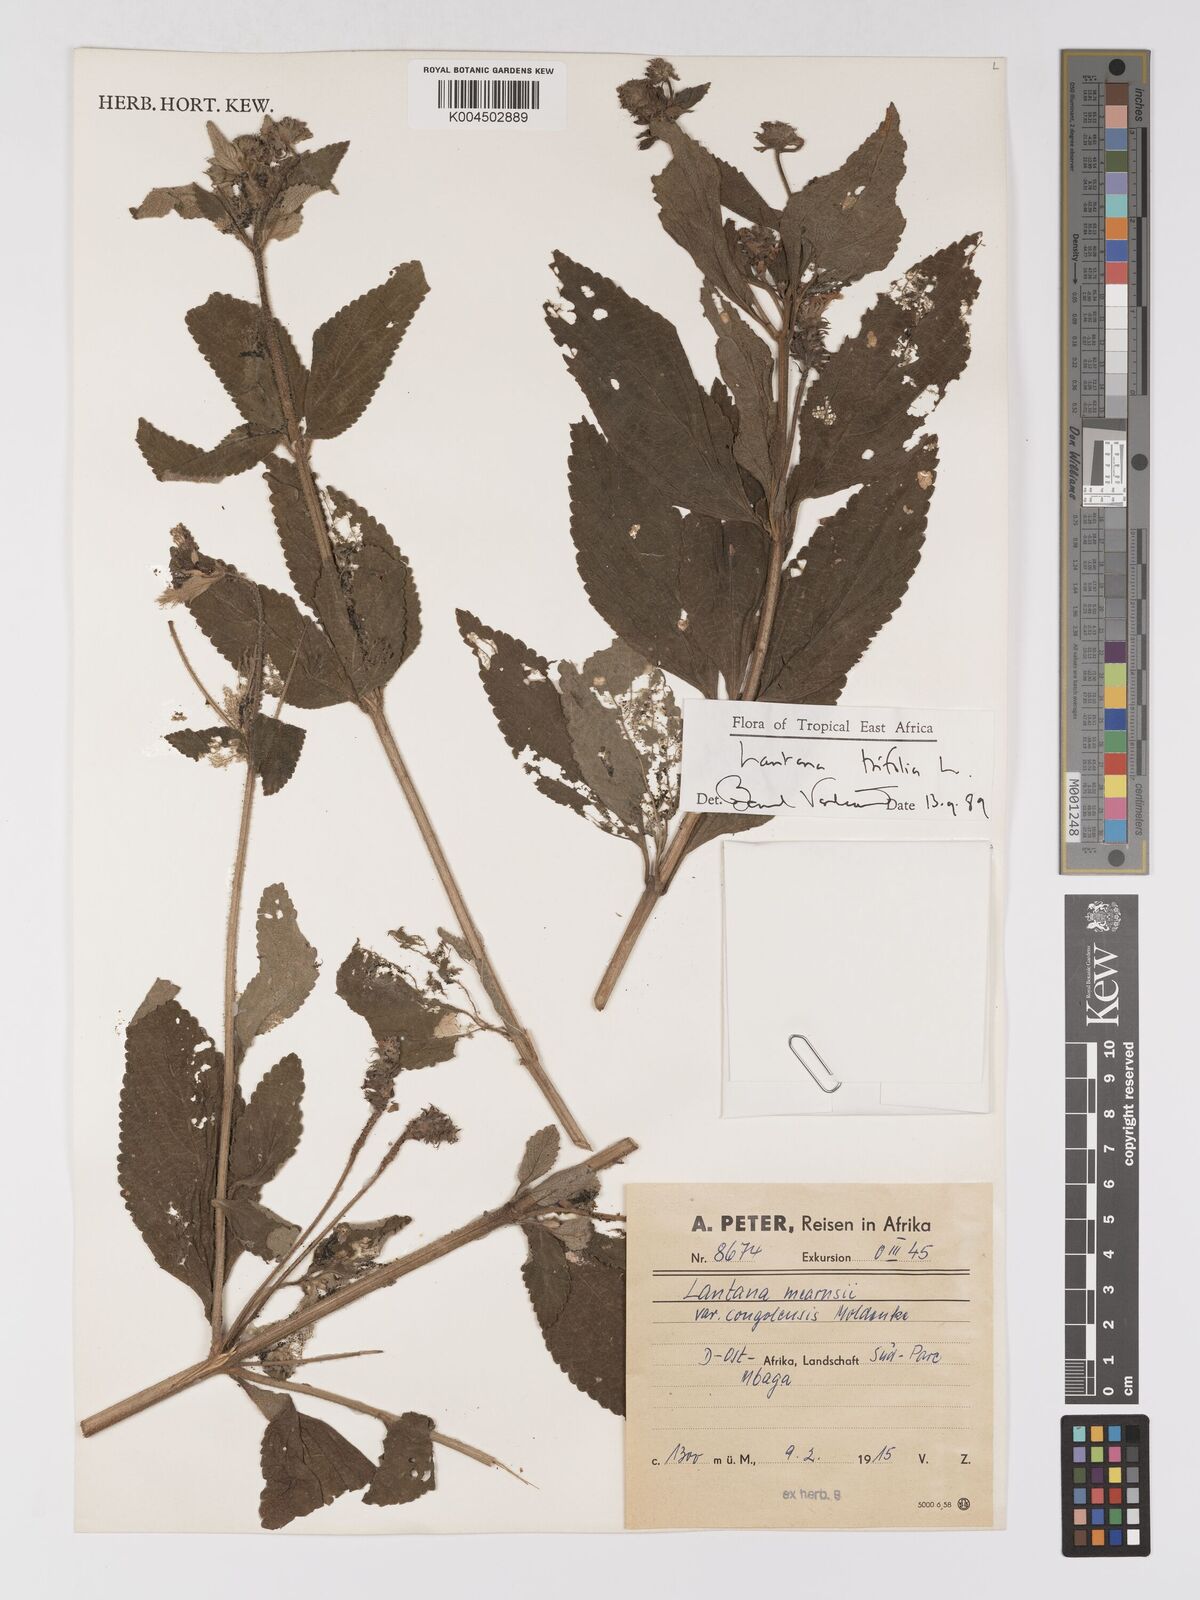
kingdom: Plantae
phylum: Tracheophyta
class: Magnoliopsida
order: Lamiales
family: Verbenaceae
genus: Lantana
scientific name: Lantana trifolia
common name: Sweet-sage
